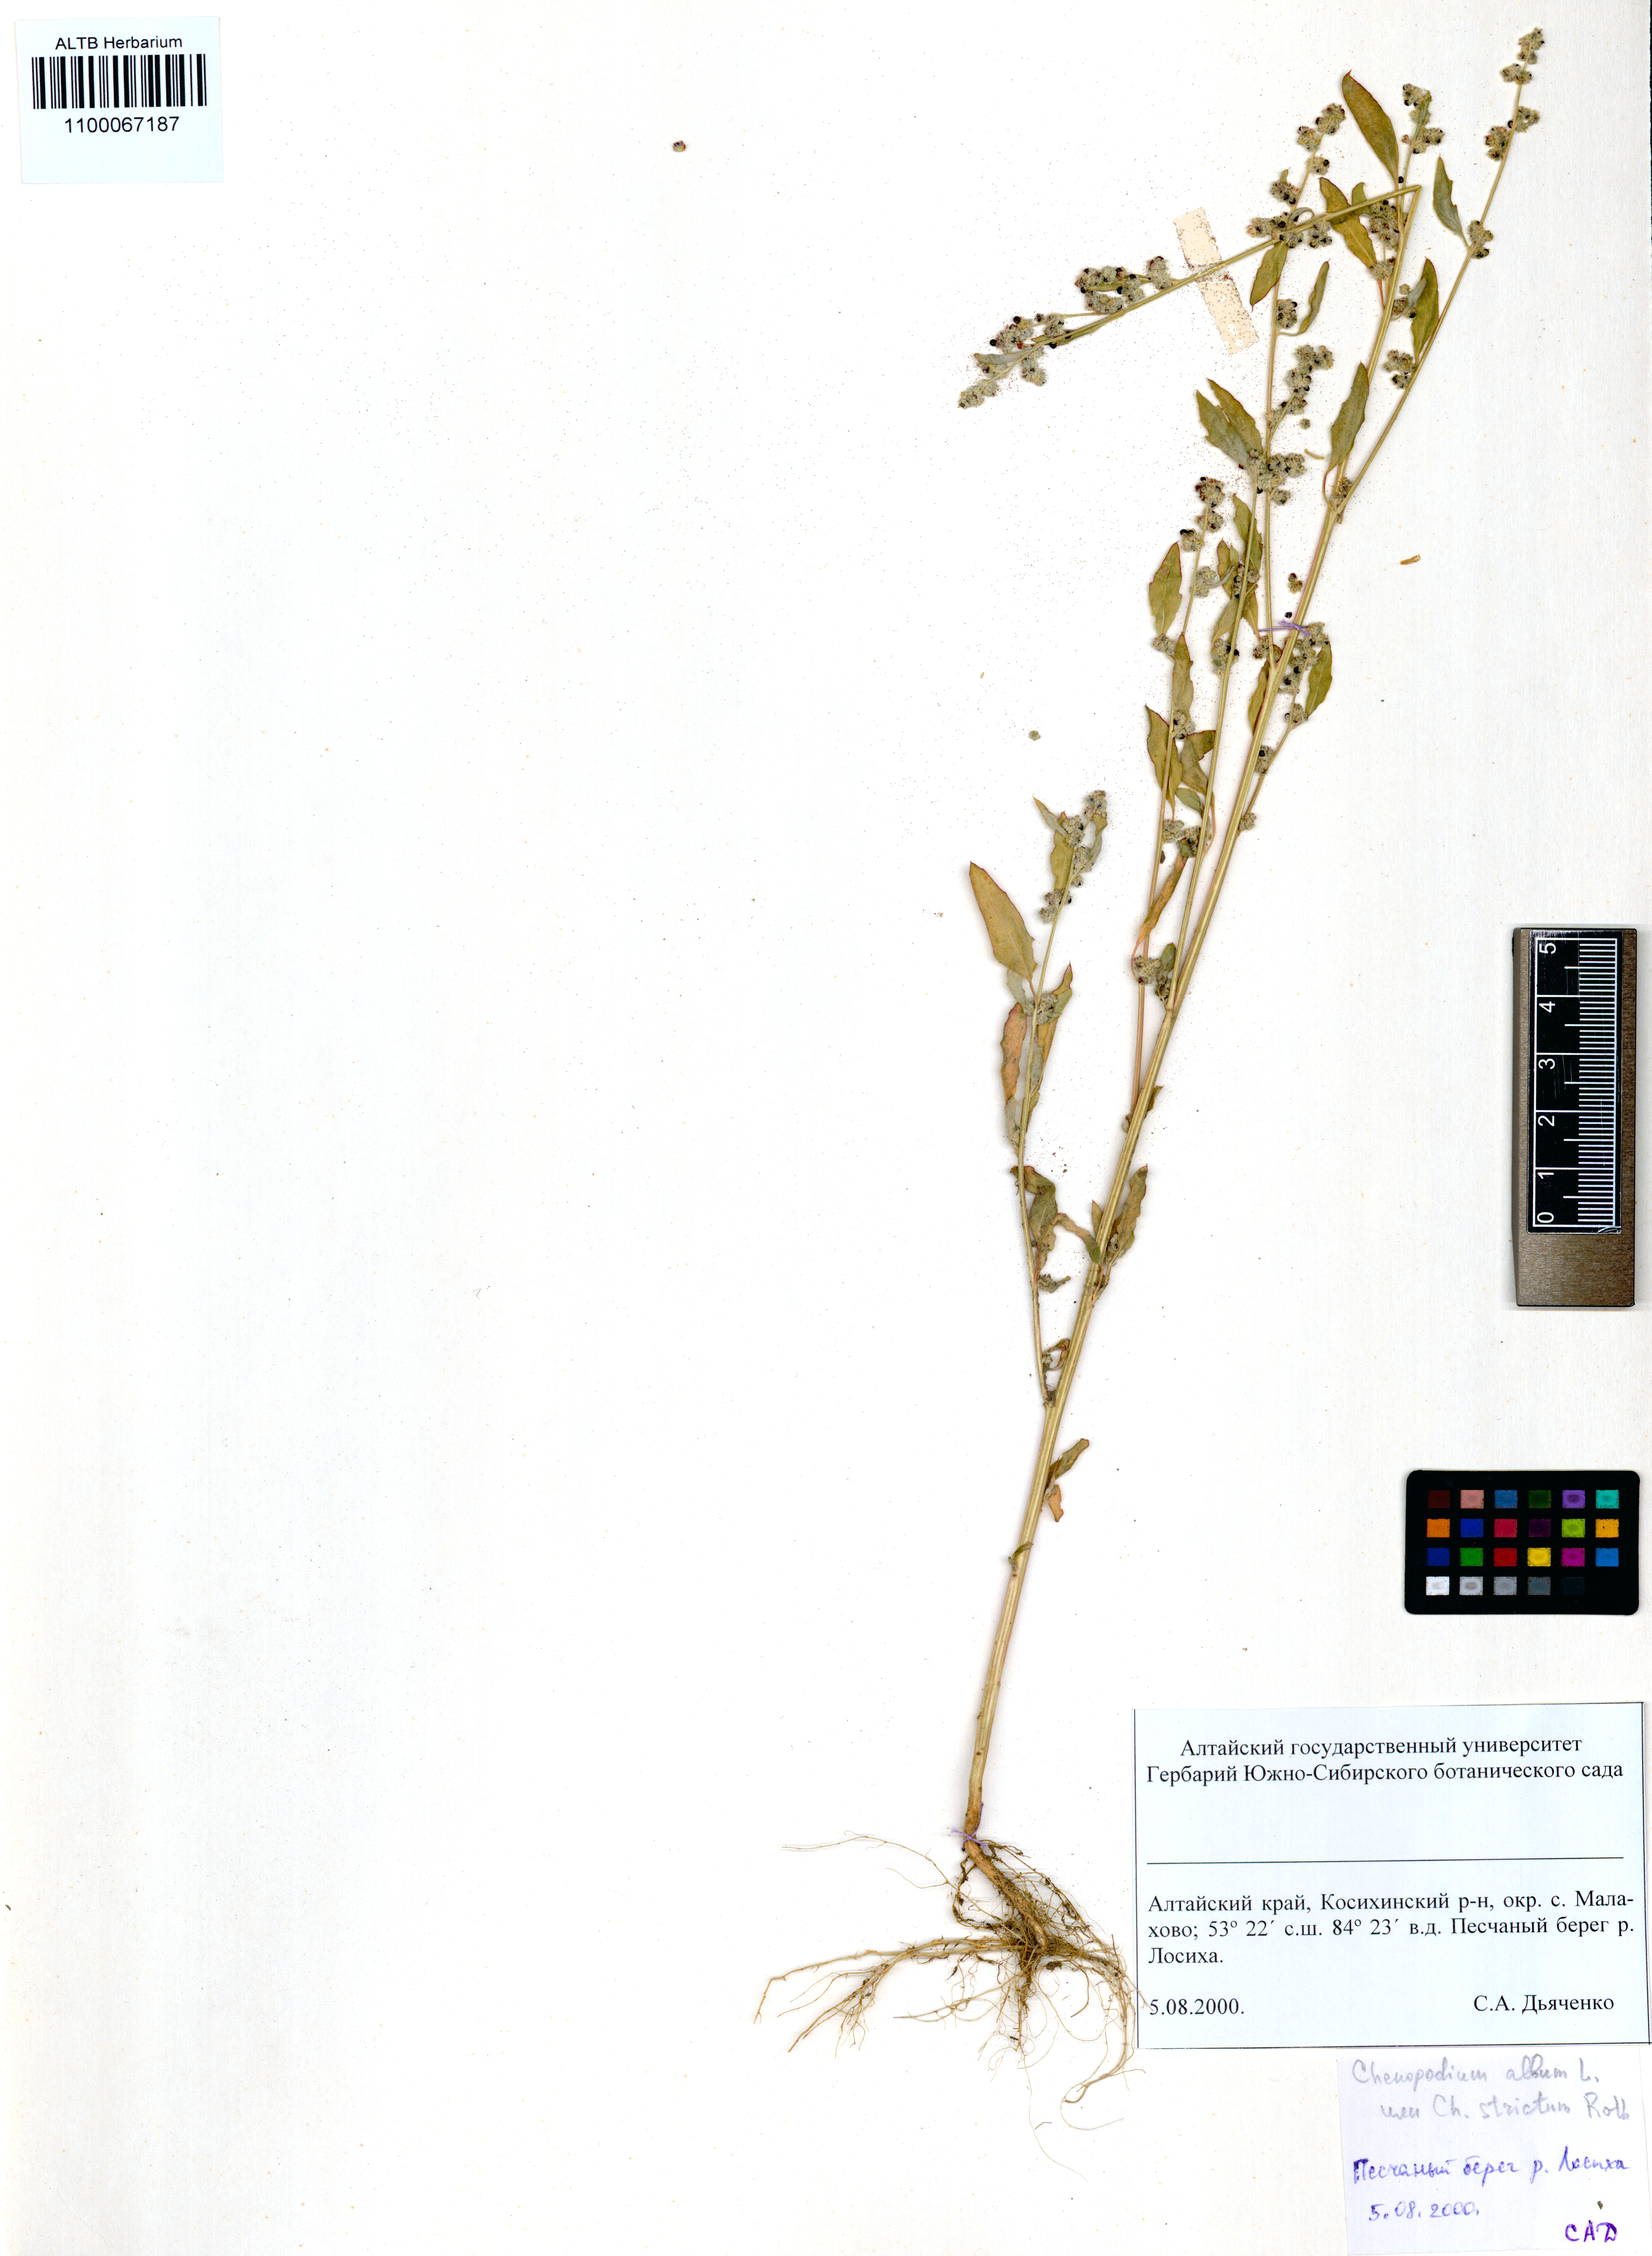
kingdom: Plantae
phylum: Tracheophyta
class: Magnoliopsida
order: Caryophyllales
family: Amaranthaceae
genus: Chenopodium
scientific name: Chenopodium album
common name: Fat-hen
